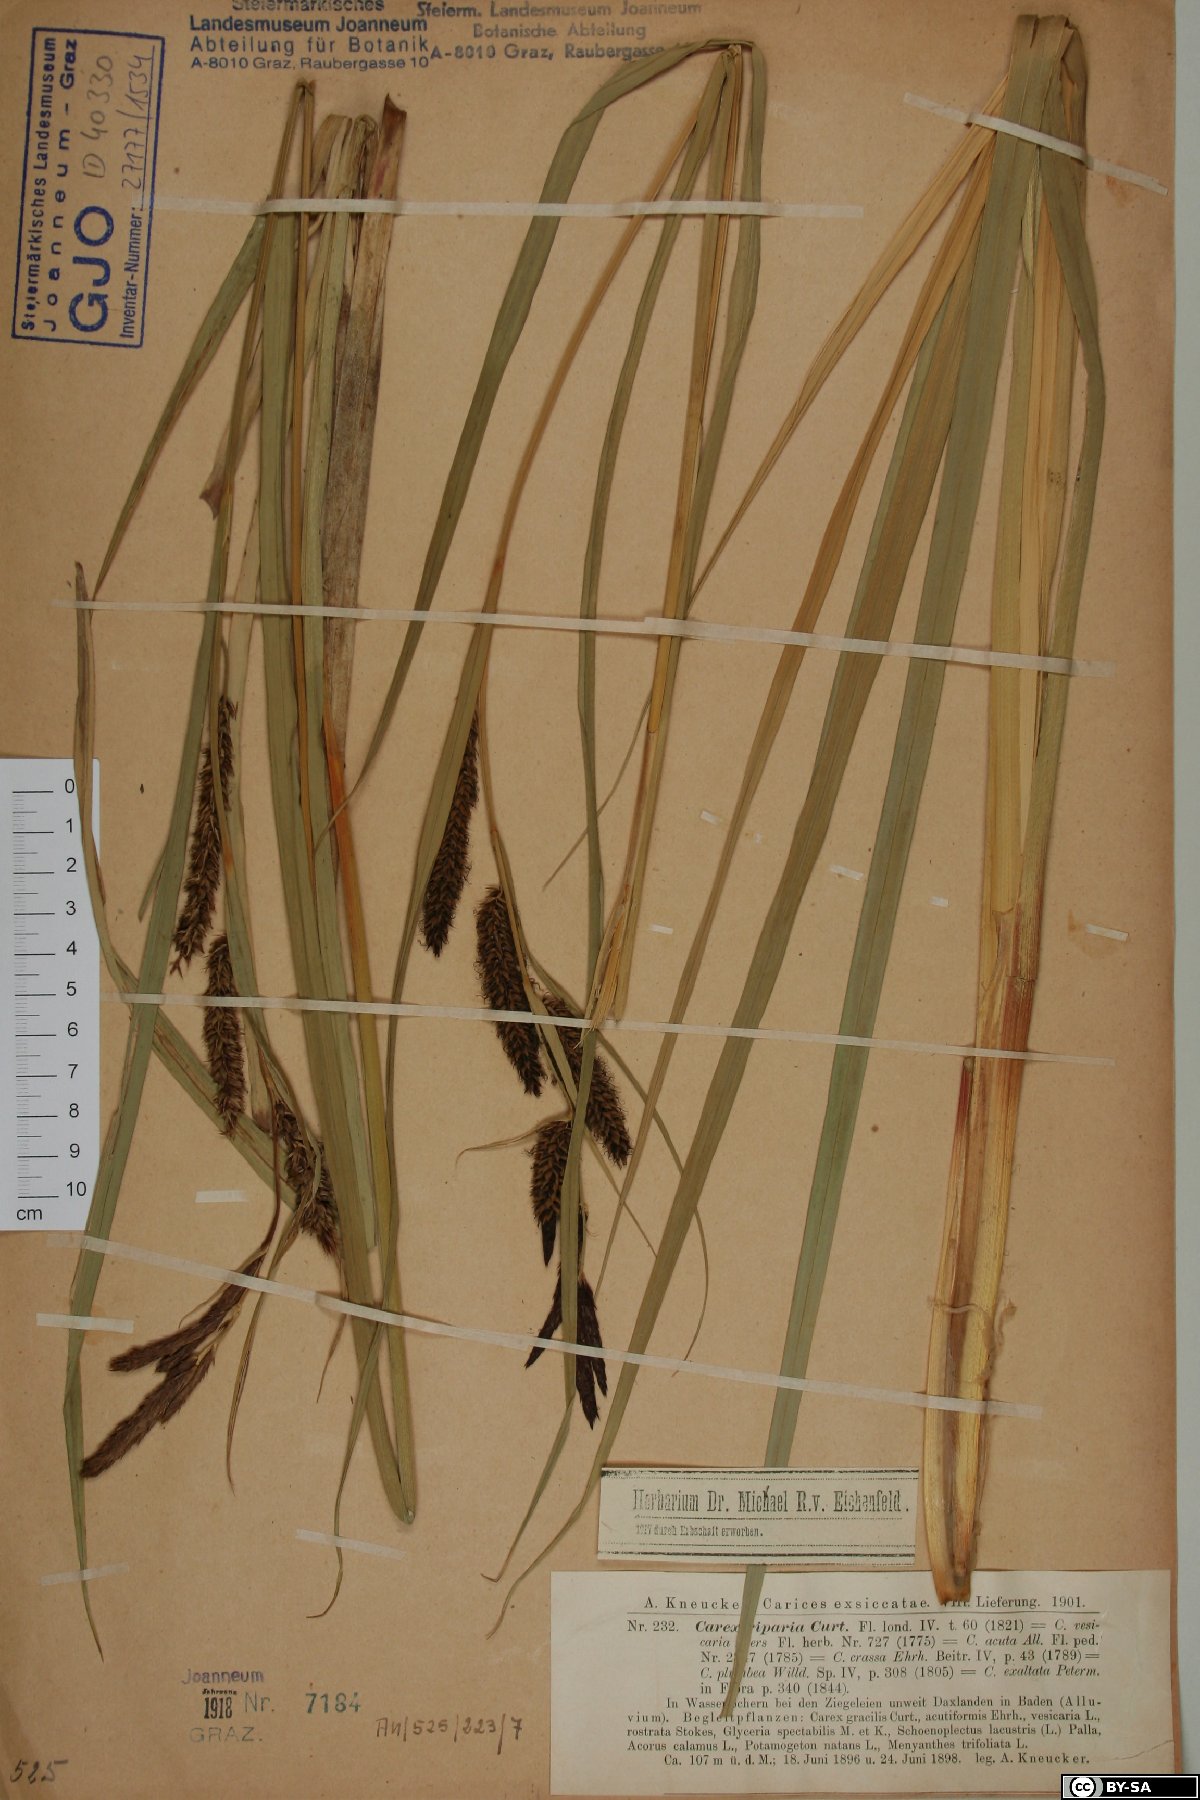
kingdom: Plantae
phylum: Tracheophyta
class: Liliopsida
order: Poales
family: Cyperaceae
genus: Carex
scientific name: Carex riparia
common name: Greater pond-sedge
